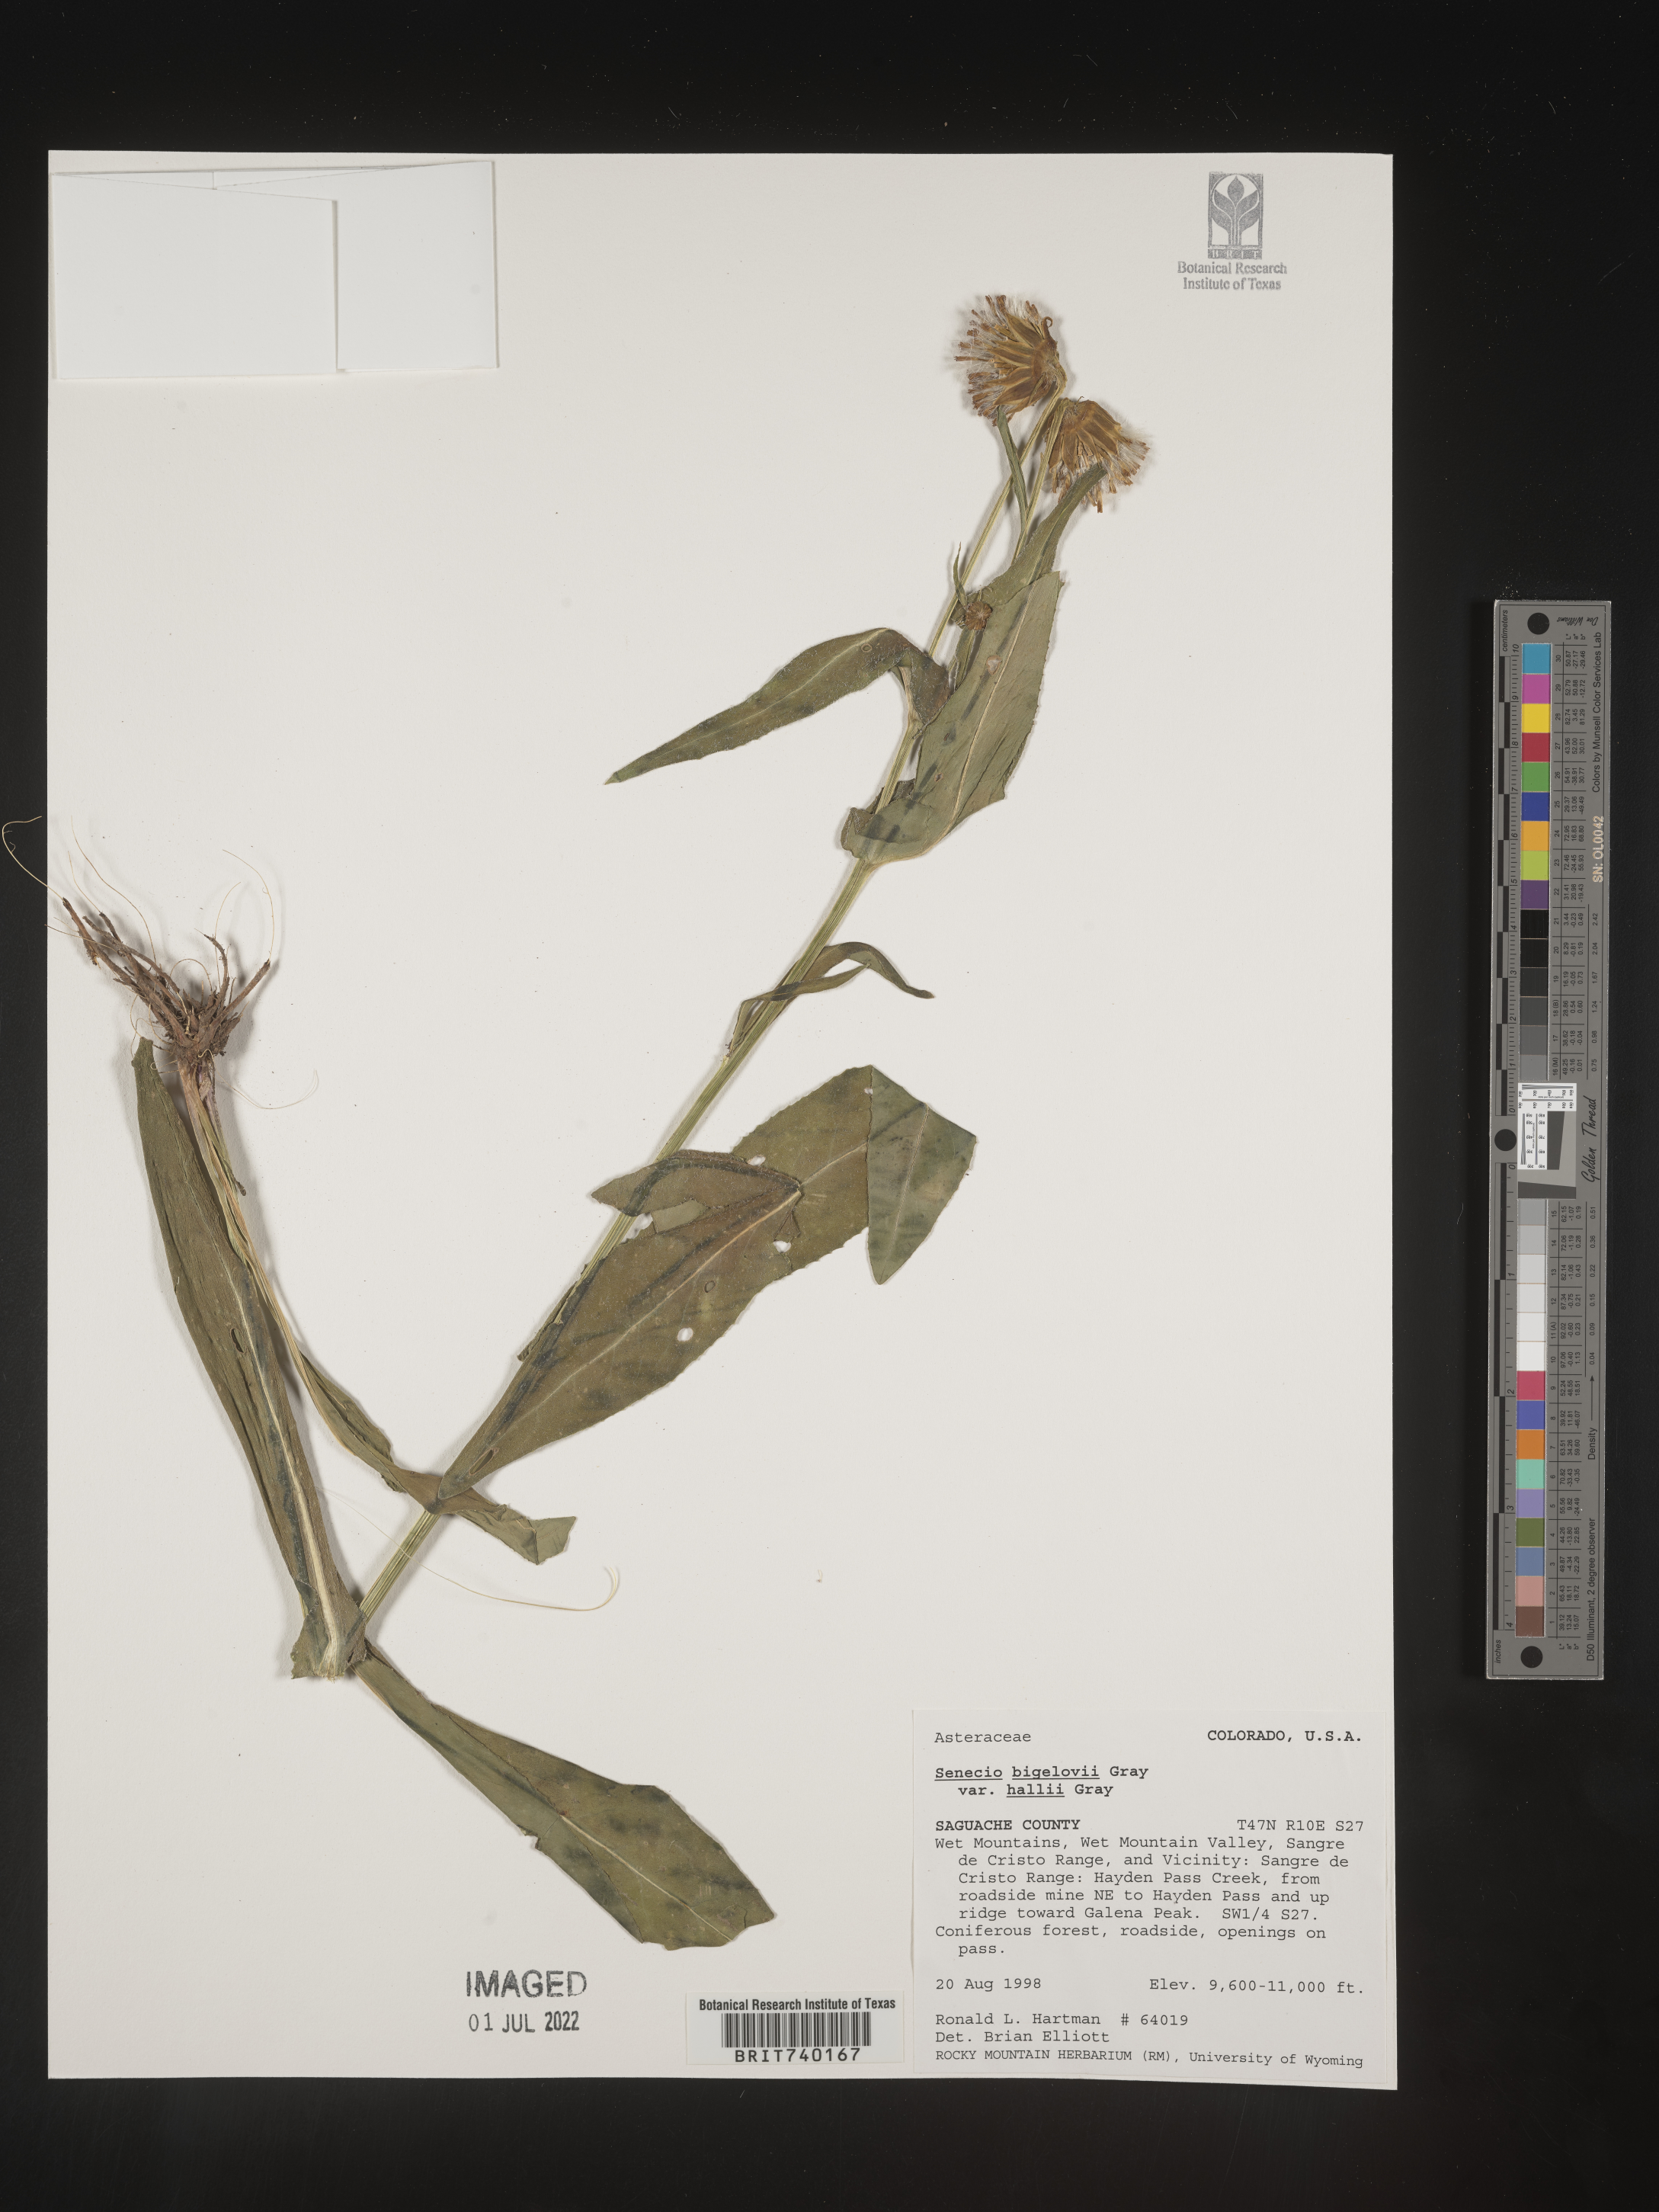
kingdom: Plantae
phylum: Tracheophyta
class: Magnoliopsida
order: Asterales
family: Asteraceae
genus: Senecio
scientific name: Senecio bigelovii
